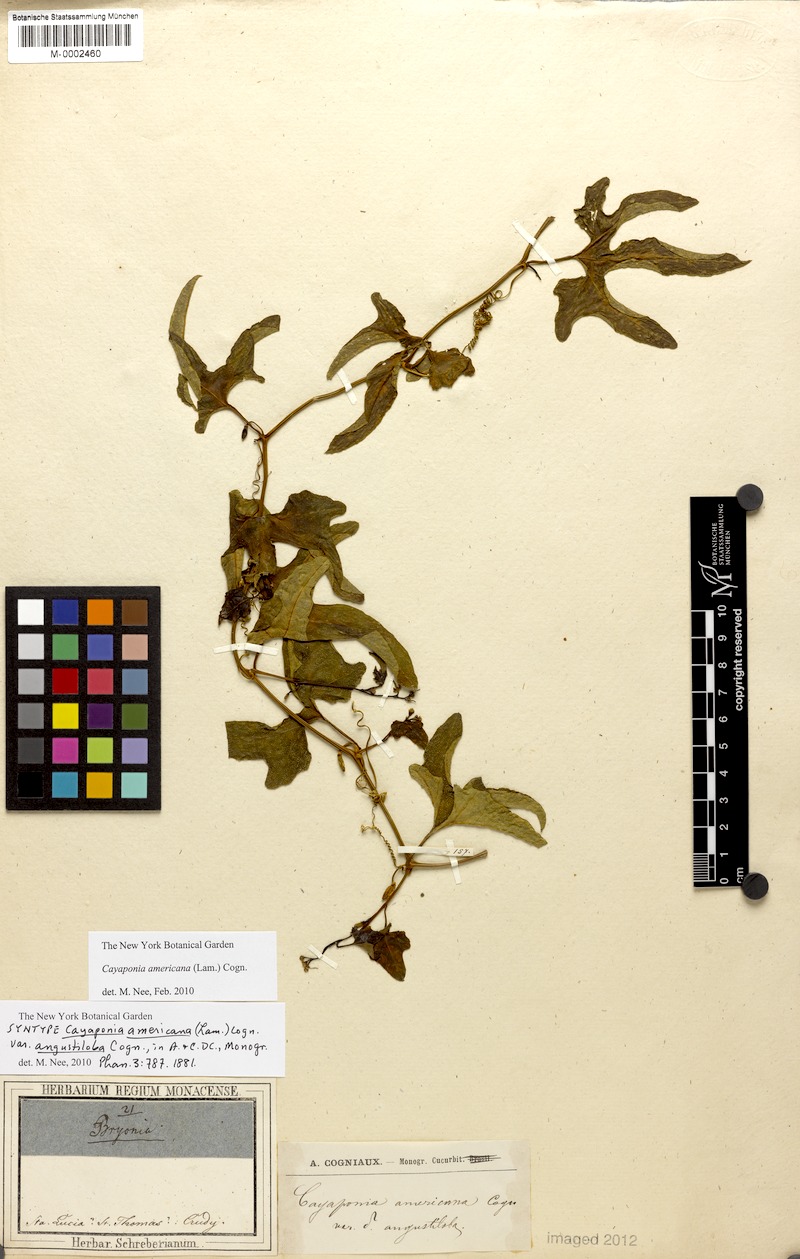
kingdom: Plantae
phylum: Tracheophyta
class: Magnoliopsida
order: Cucurbitales
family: Cucurbitaceae
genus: Cayaponia
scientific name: Cayaponia americana
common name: American melonleaf
